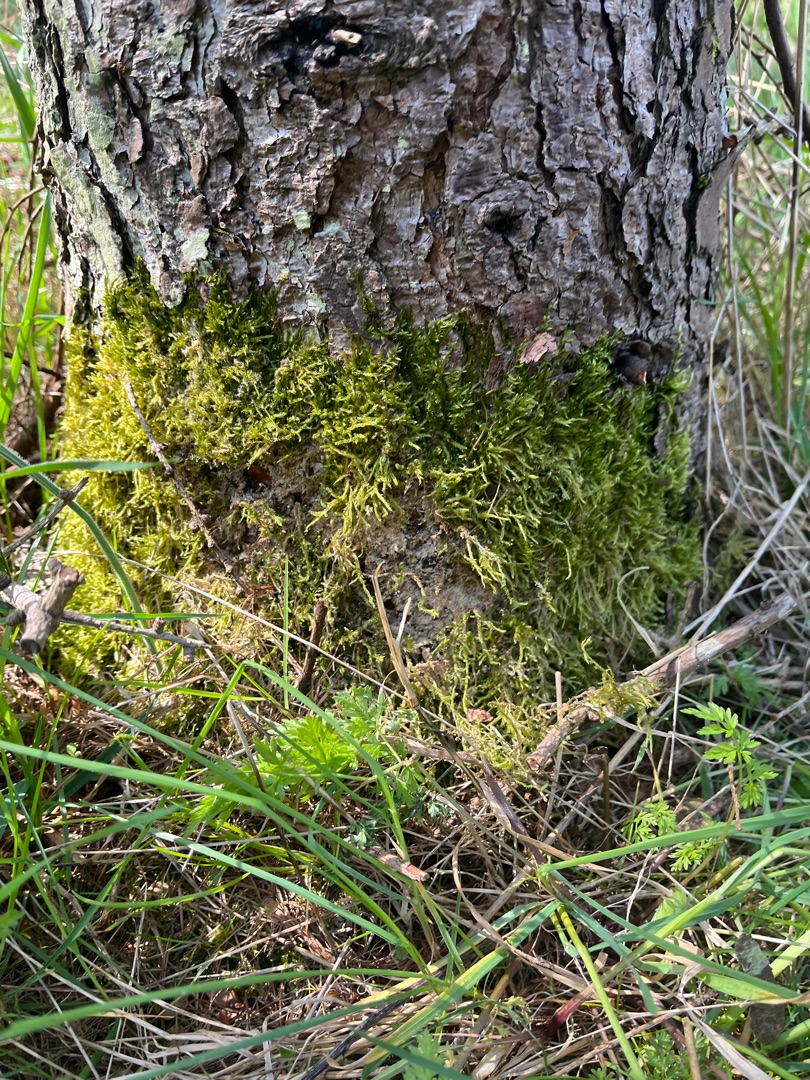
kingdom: Plantae
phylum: Bryophyta
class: Bryopsida
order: Hypnales
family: Hypnaceae
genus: Hypnum
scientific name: Hypnum
